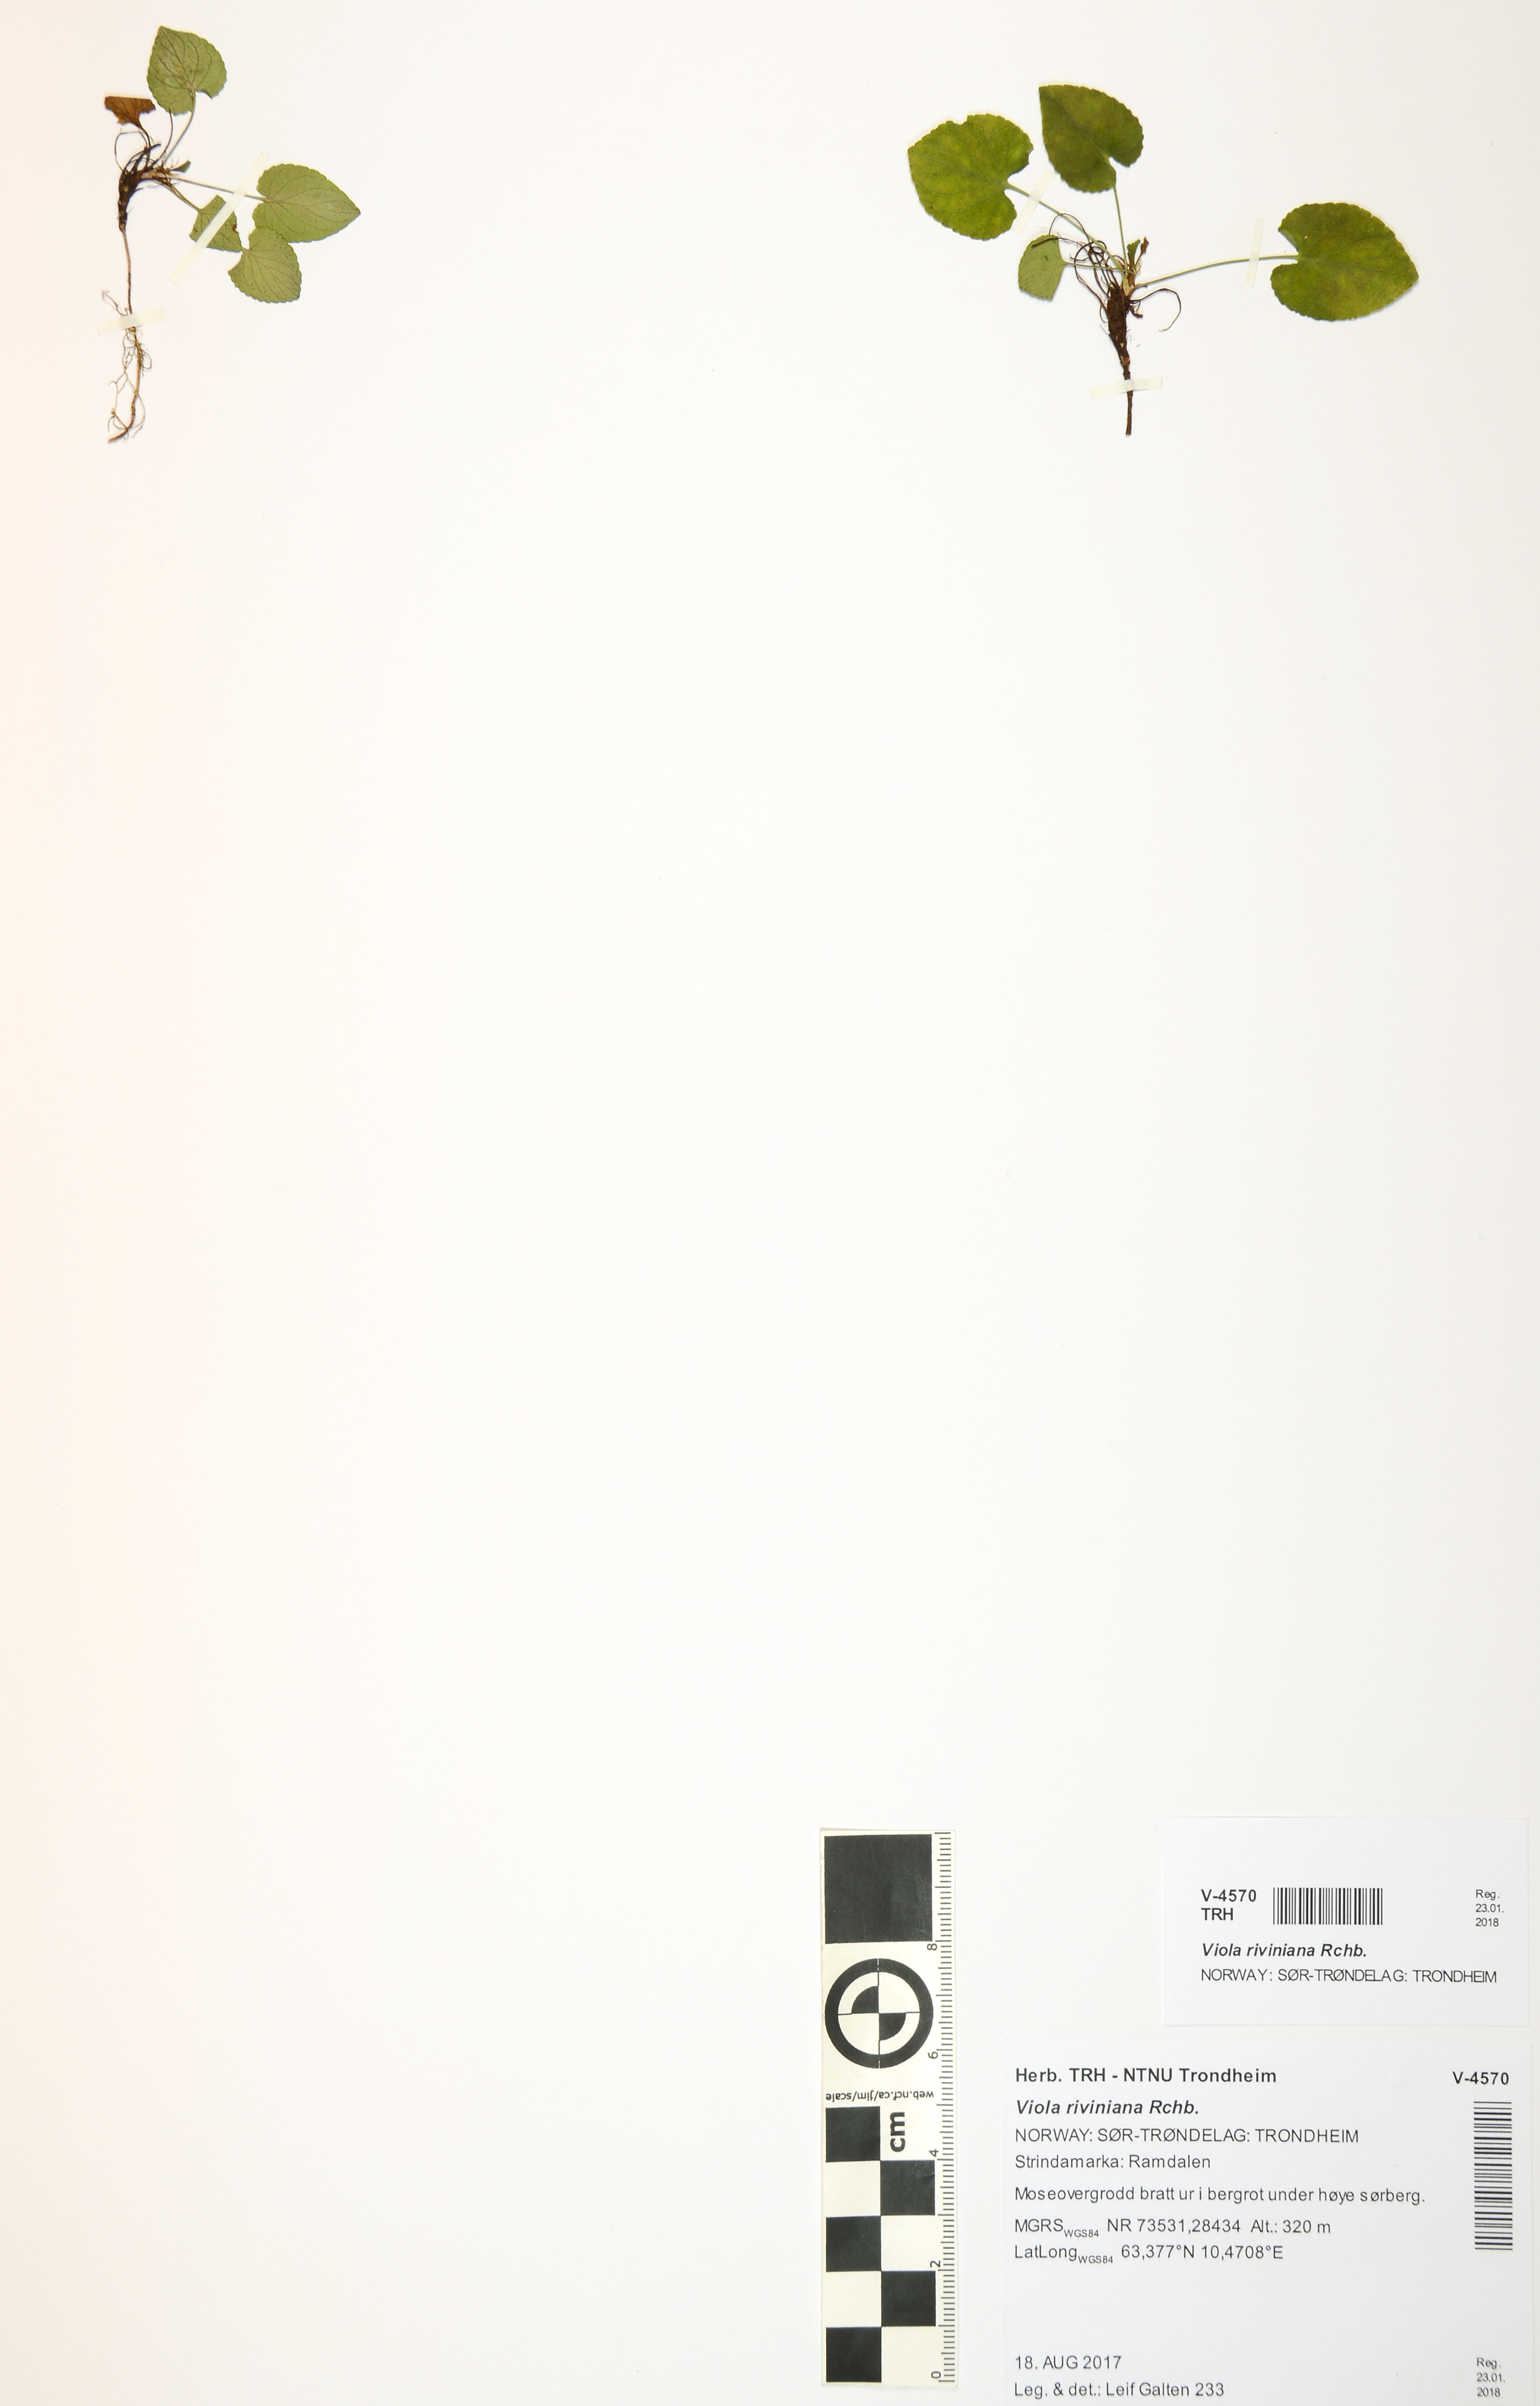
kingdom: Plantae
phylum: Tracheophyta
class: Magnoliopsida
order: Malpighiales
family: Violaceae
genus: Viola
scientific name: Viola riviniana
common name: Common dog-violet
